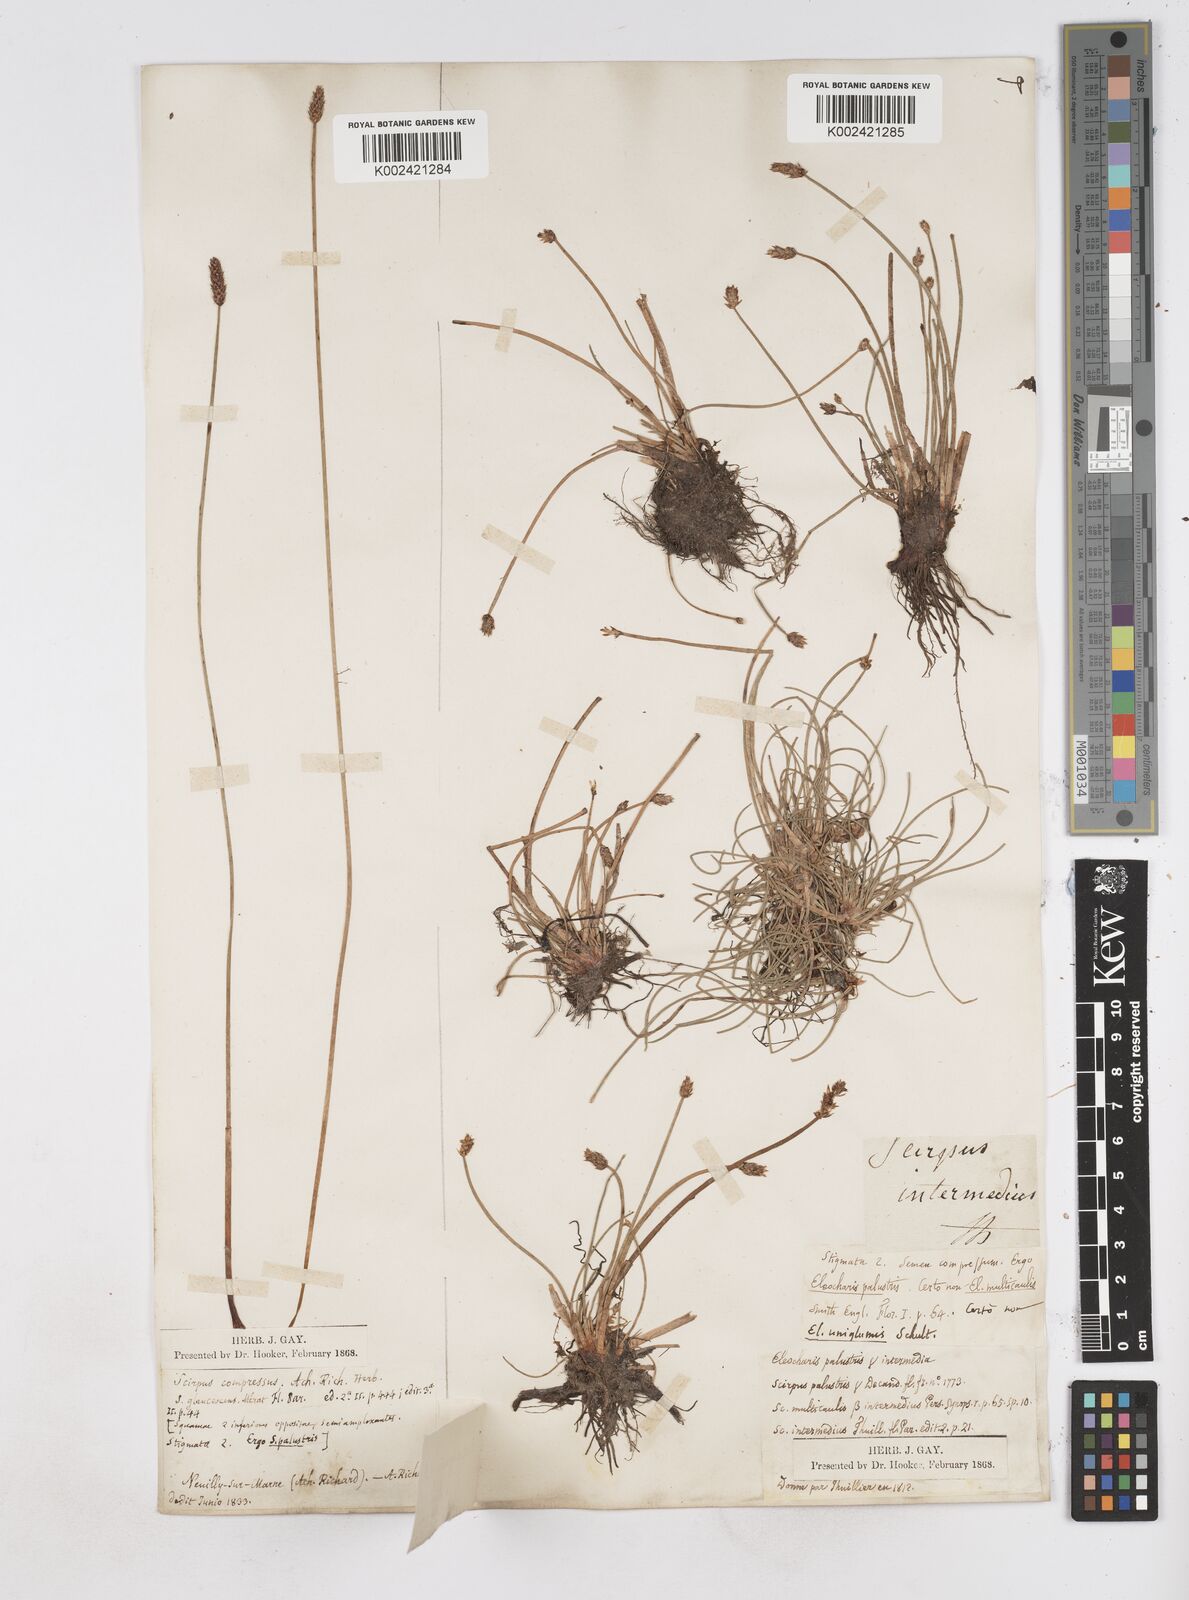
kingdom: Plantae
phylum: Tracheophyta
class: Liliopsida
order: Poales
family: Cyperaceae
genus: Eleocharis
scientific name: Eleocharis palustris
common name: Common spike-rush
